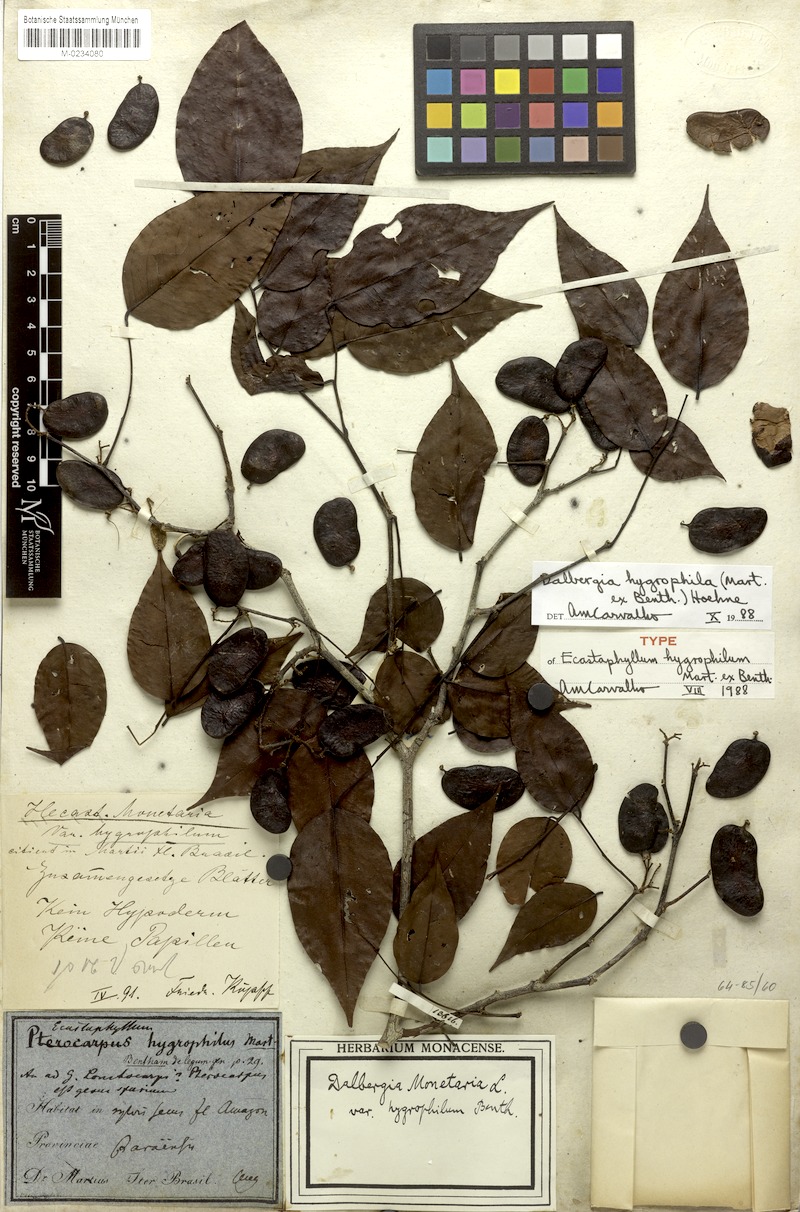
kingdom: Plantae
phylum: Tracheophyta
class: Magnoliopsida
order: Fabales
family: Fabaceae
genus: Dalbergia
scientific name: Dalbergia hygrophila
